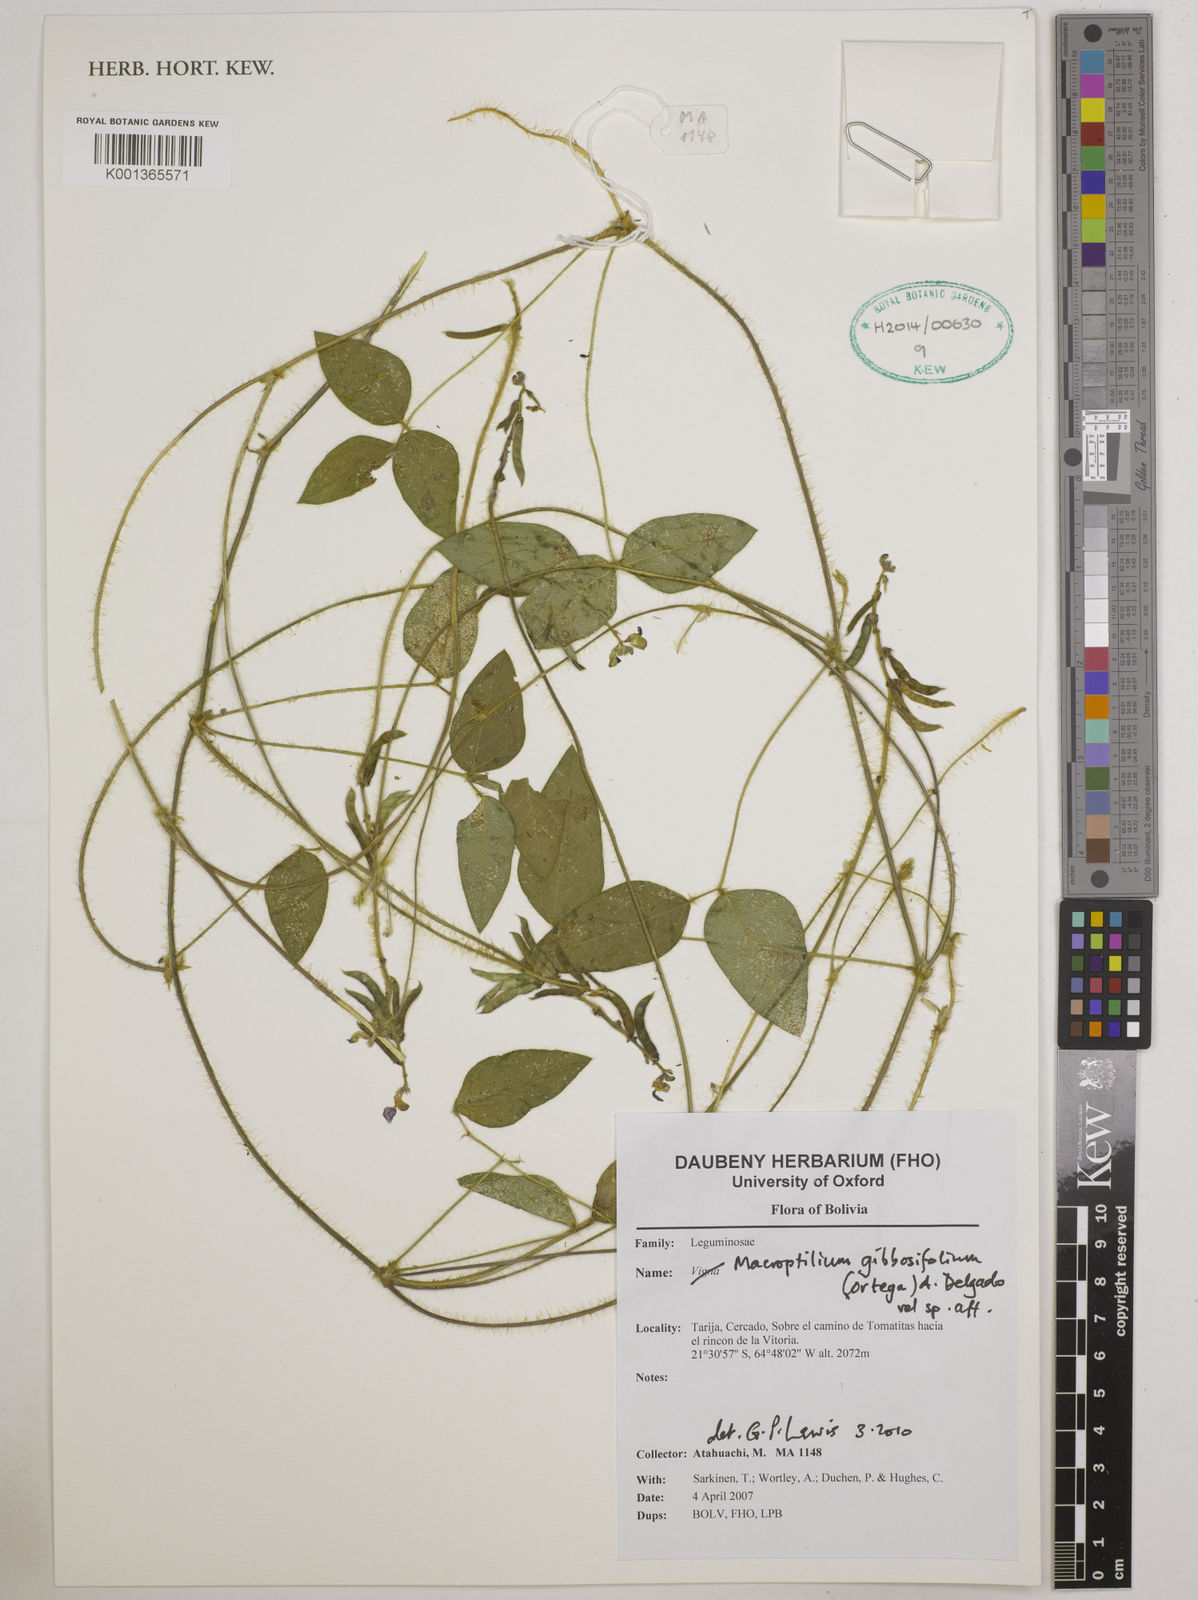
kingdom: Plantae
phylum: Tracheophyta
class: Magnoliopsida
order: Fabales
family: Fabaceae
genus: Macroptilium
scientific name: Macroptilium gibbosifolium
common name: Variableleaf bushbean
